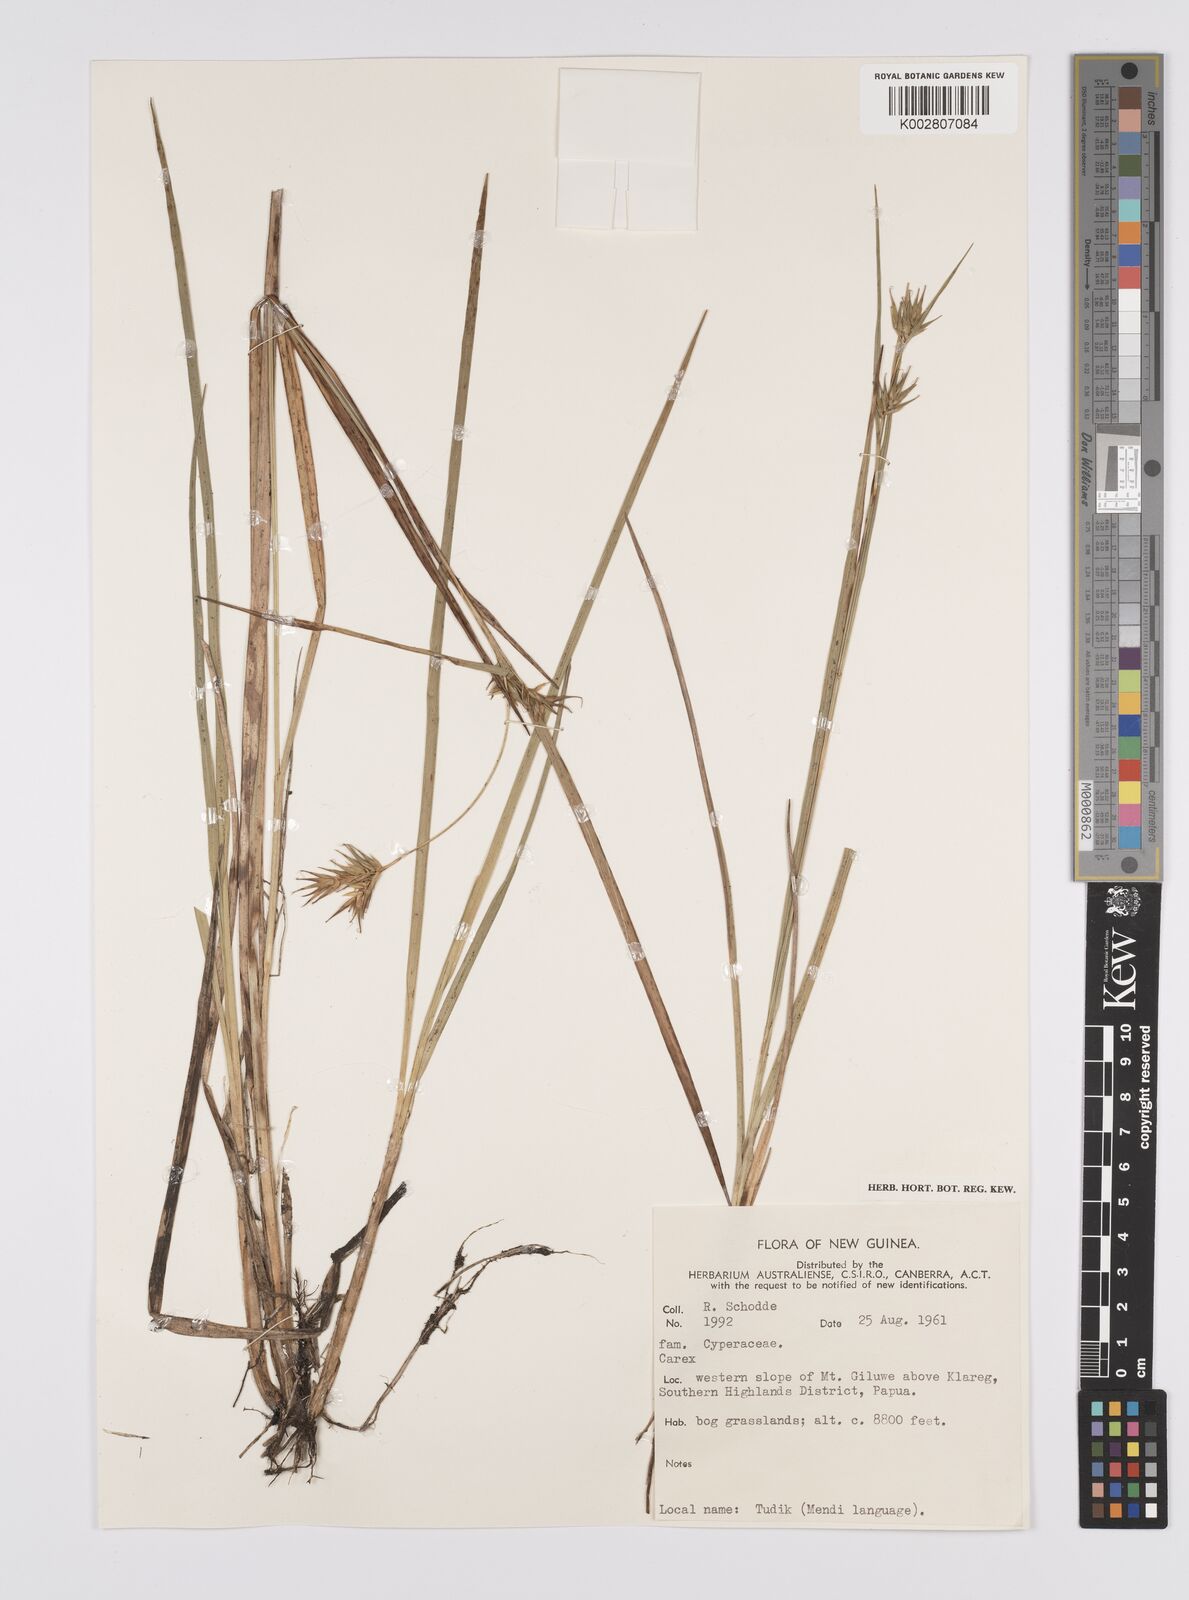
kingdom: Plantae
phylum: Tracheophyta
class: Liliopsida
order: Poales
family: Cyperaceae
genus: Carex
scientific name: Carex michauxiana
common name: Michaux's sedge
